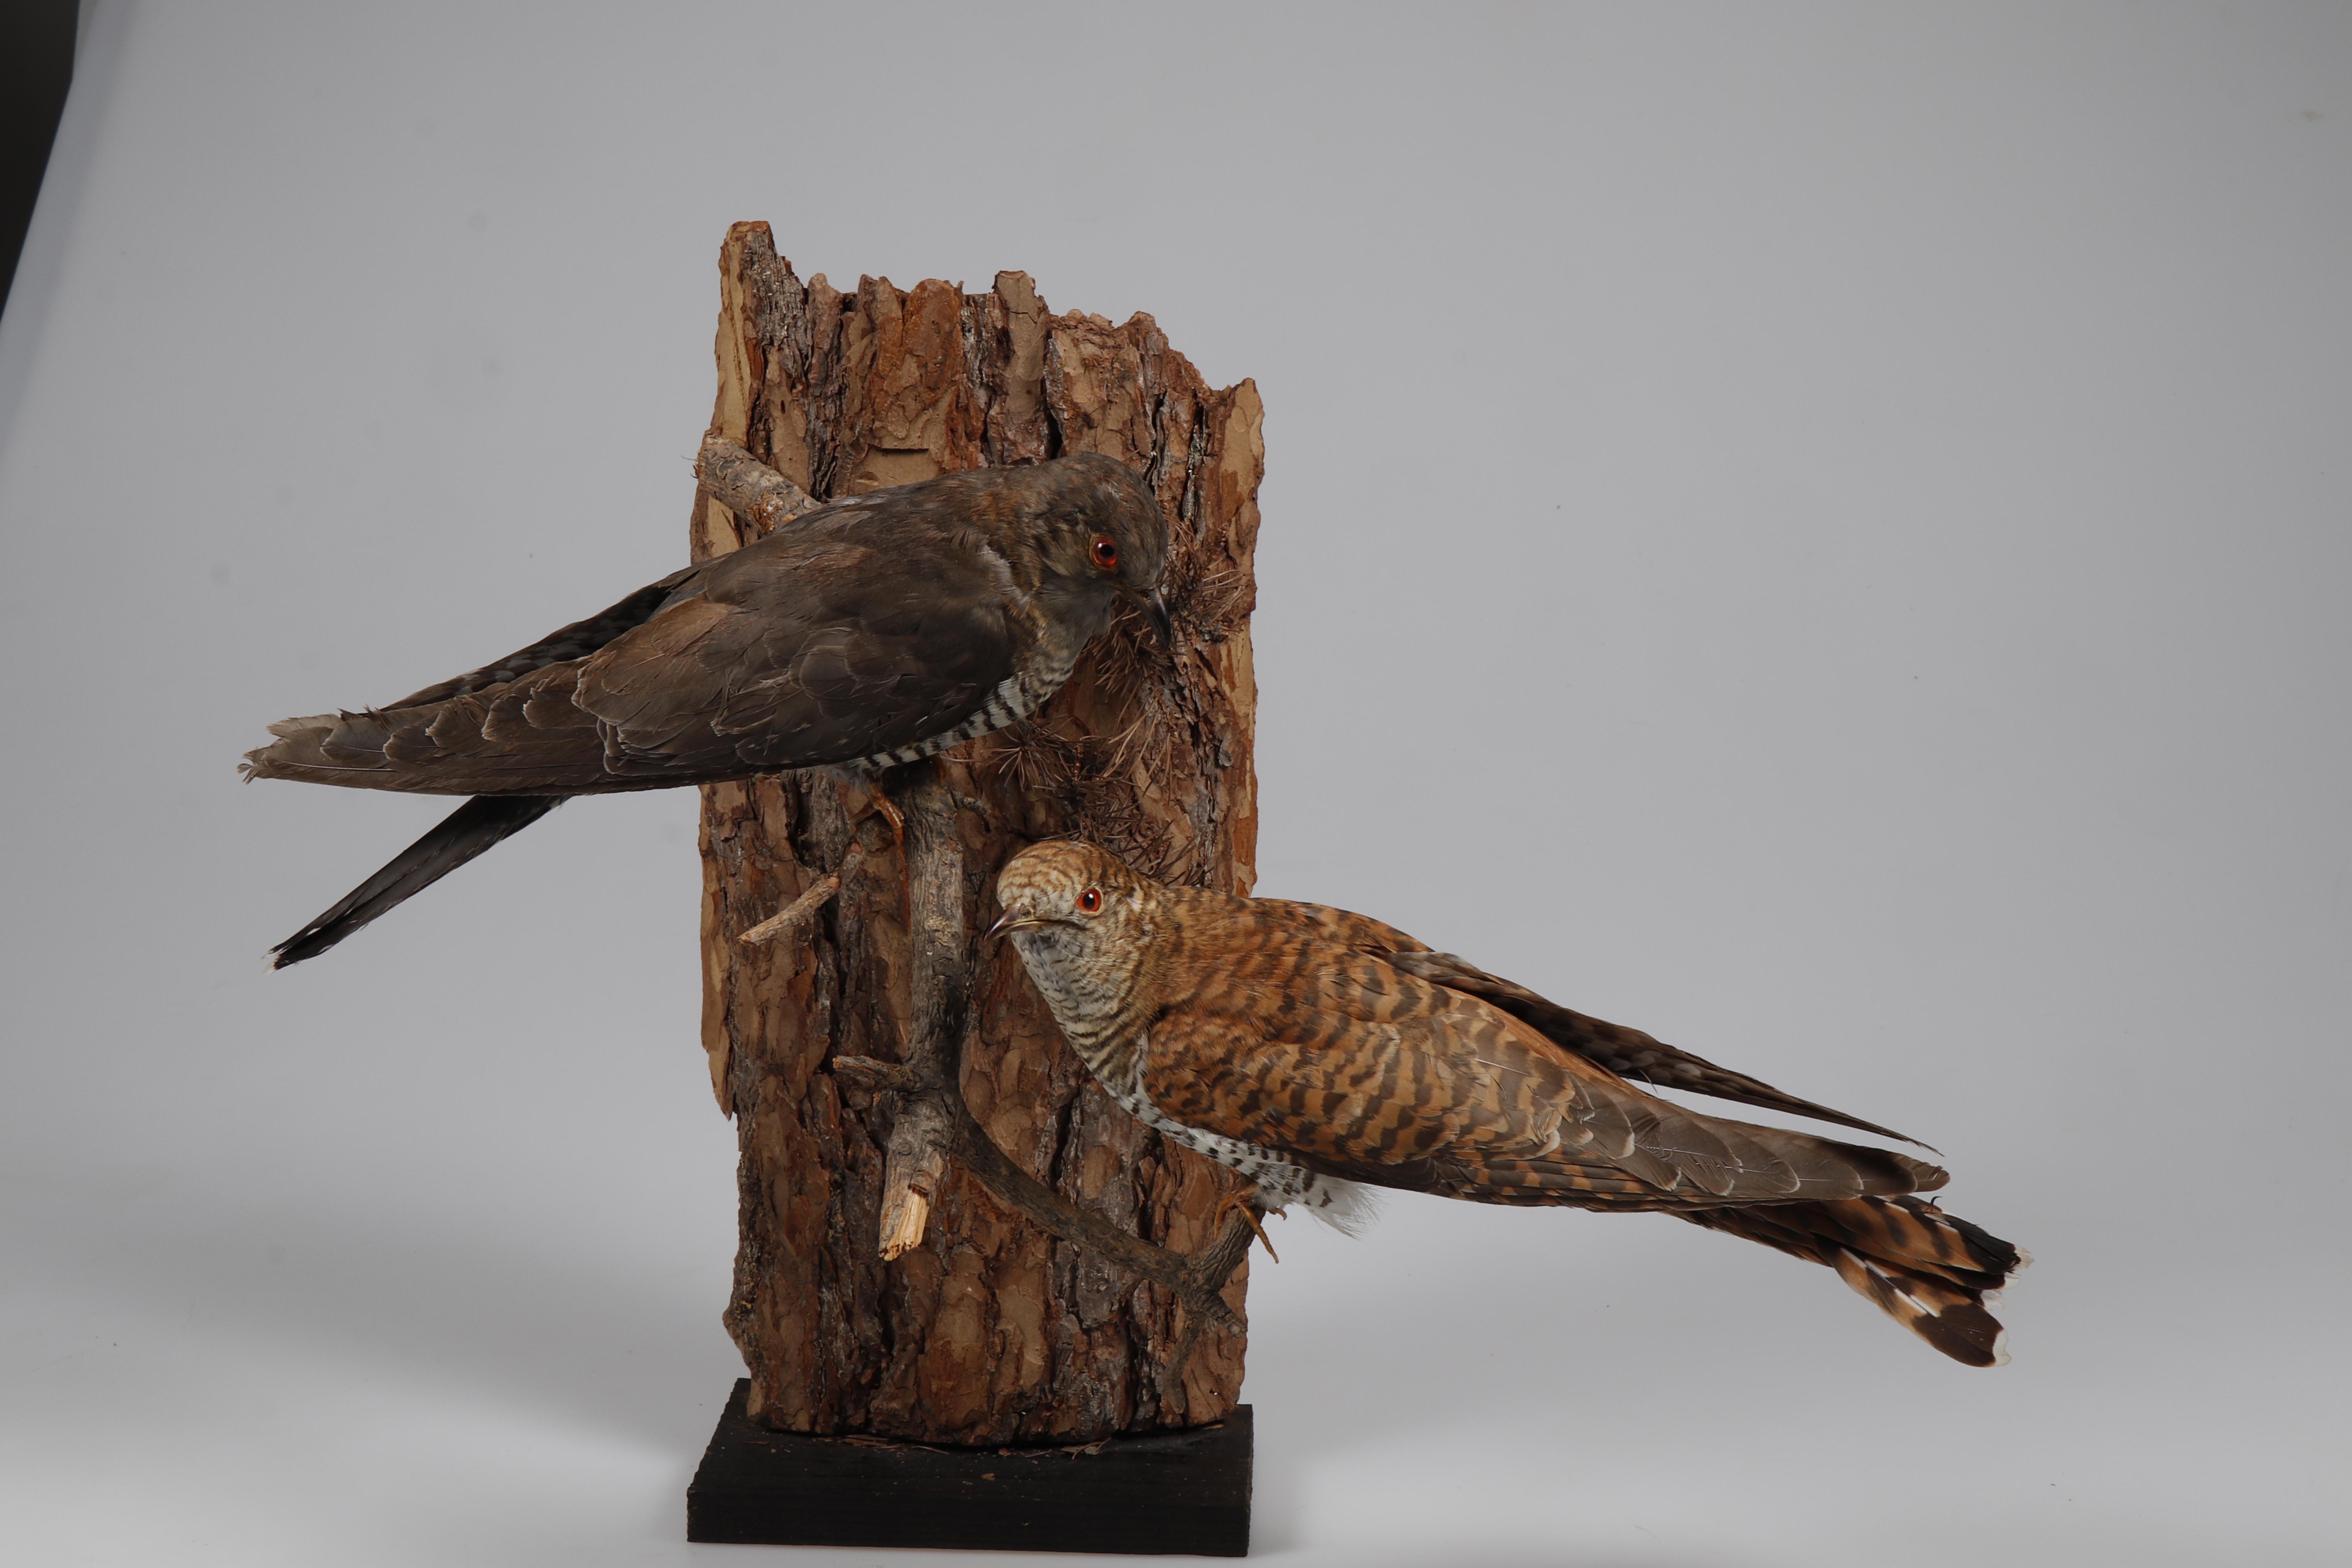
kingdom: Animalia
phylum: Chordata
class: Aves
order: Cuculiformes
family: Cuculidae
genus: Cuculus
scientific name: Cuculus canorus
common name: Common cuckoo
